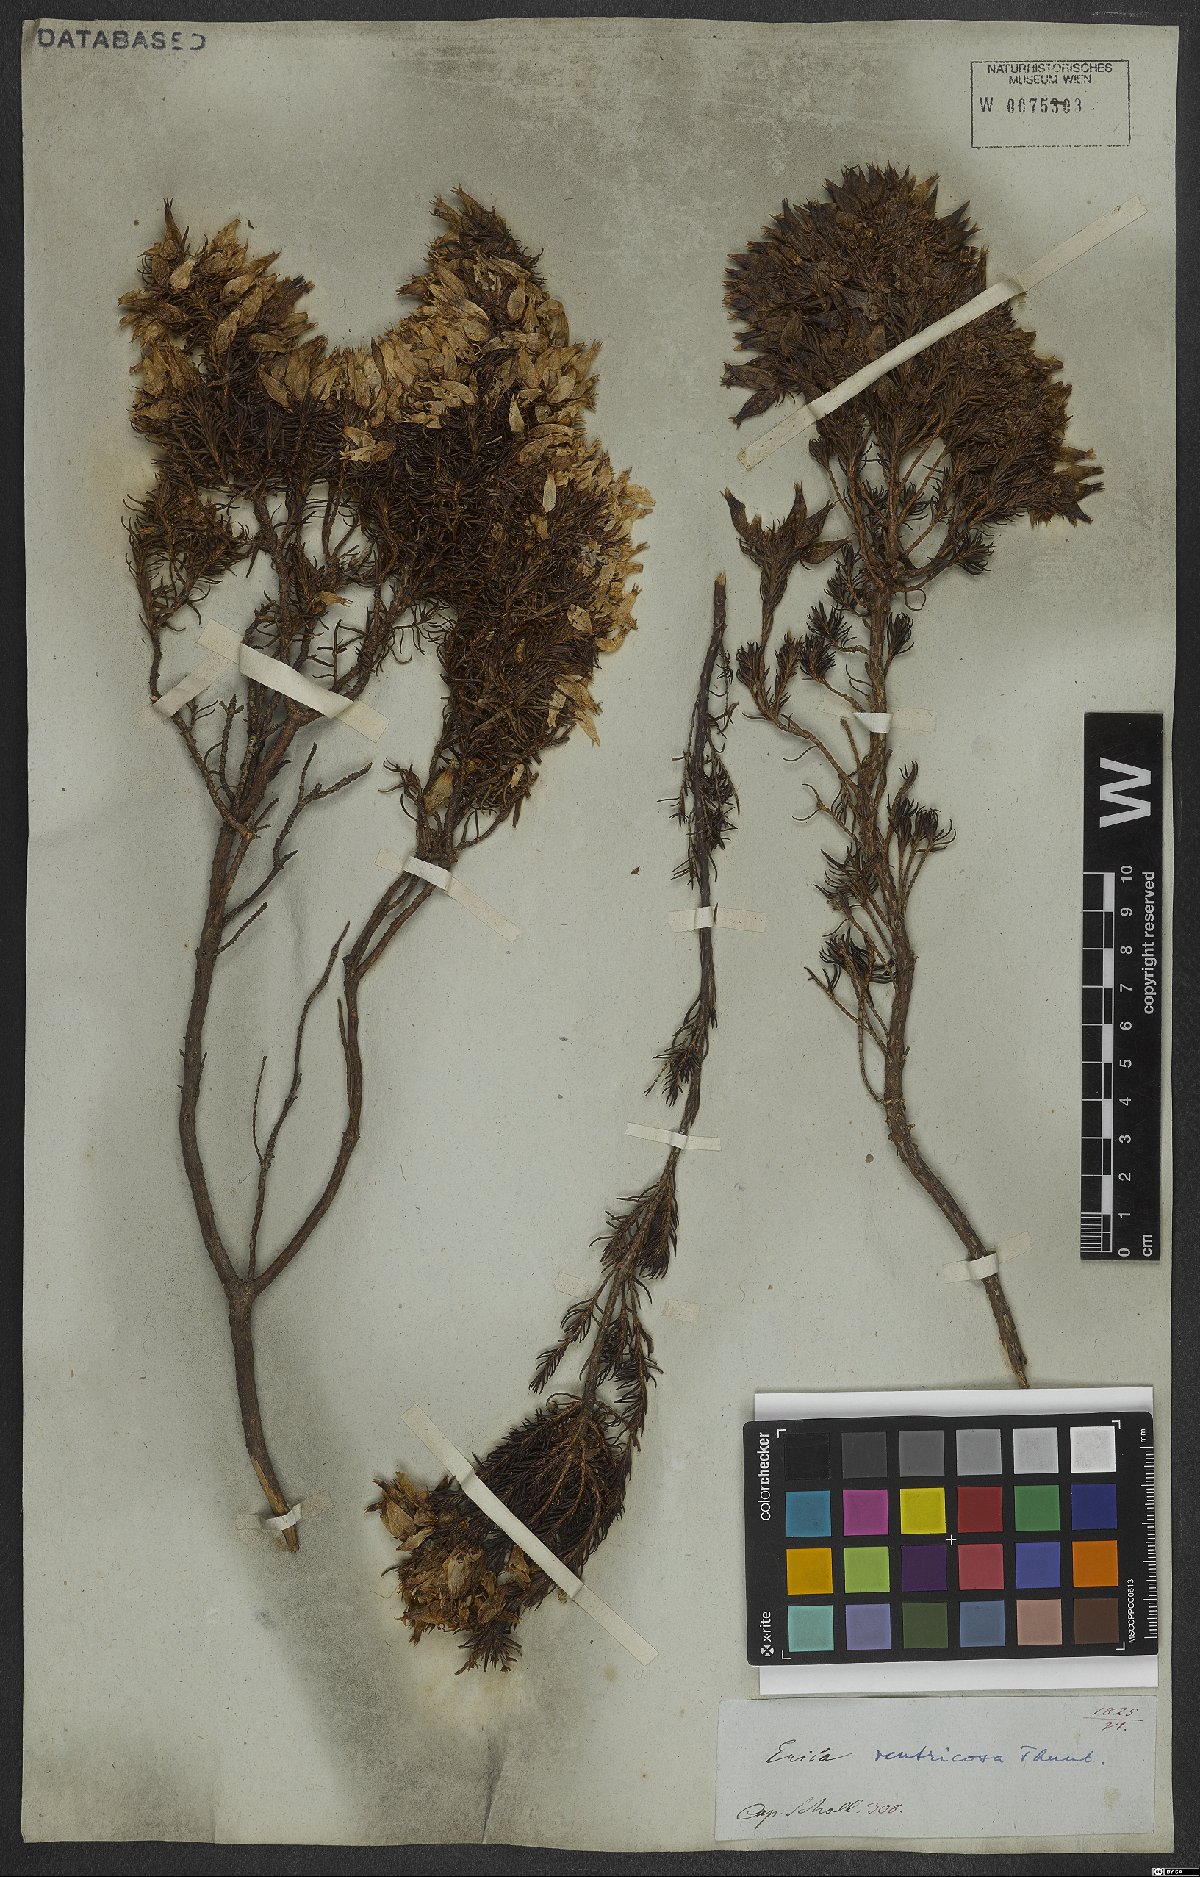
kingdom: Plantae
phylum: Tracheophyta
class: Magnoliopsida
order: Ericales
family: Ericaceae
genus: Erica
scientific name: Erica ventricosa
